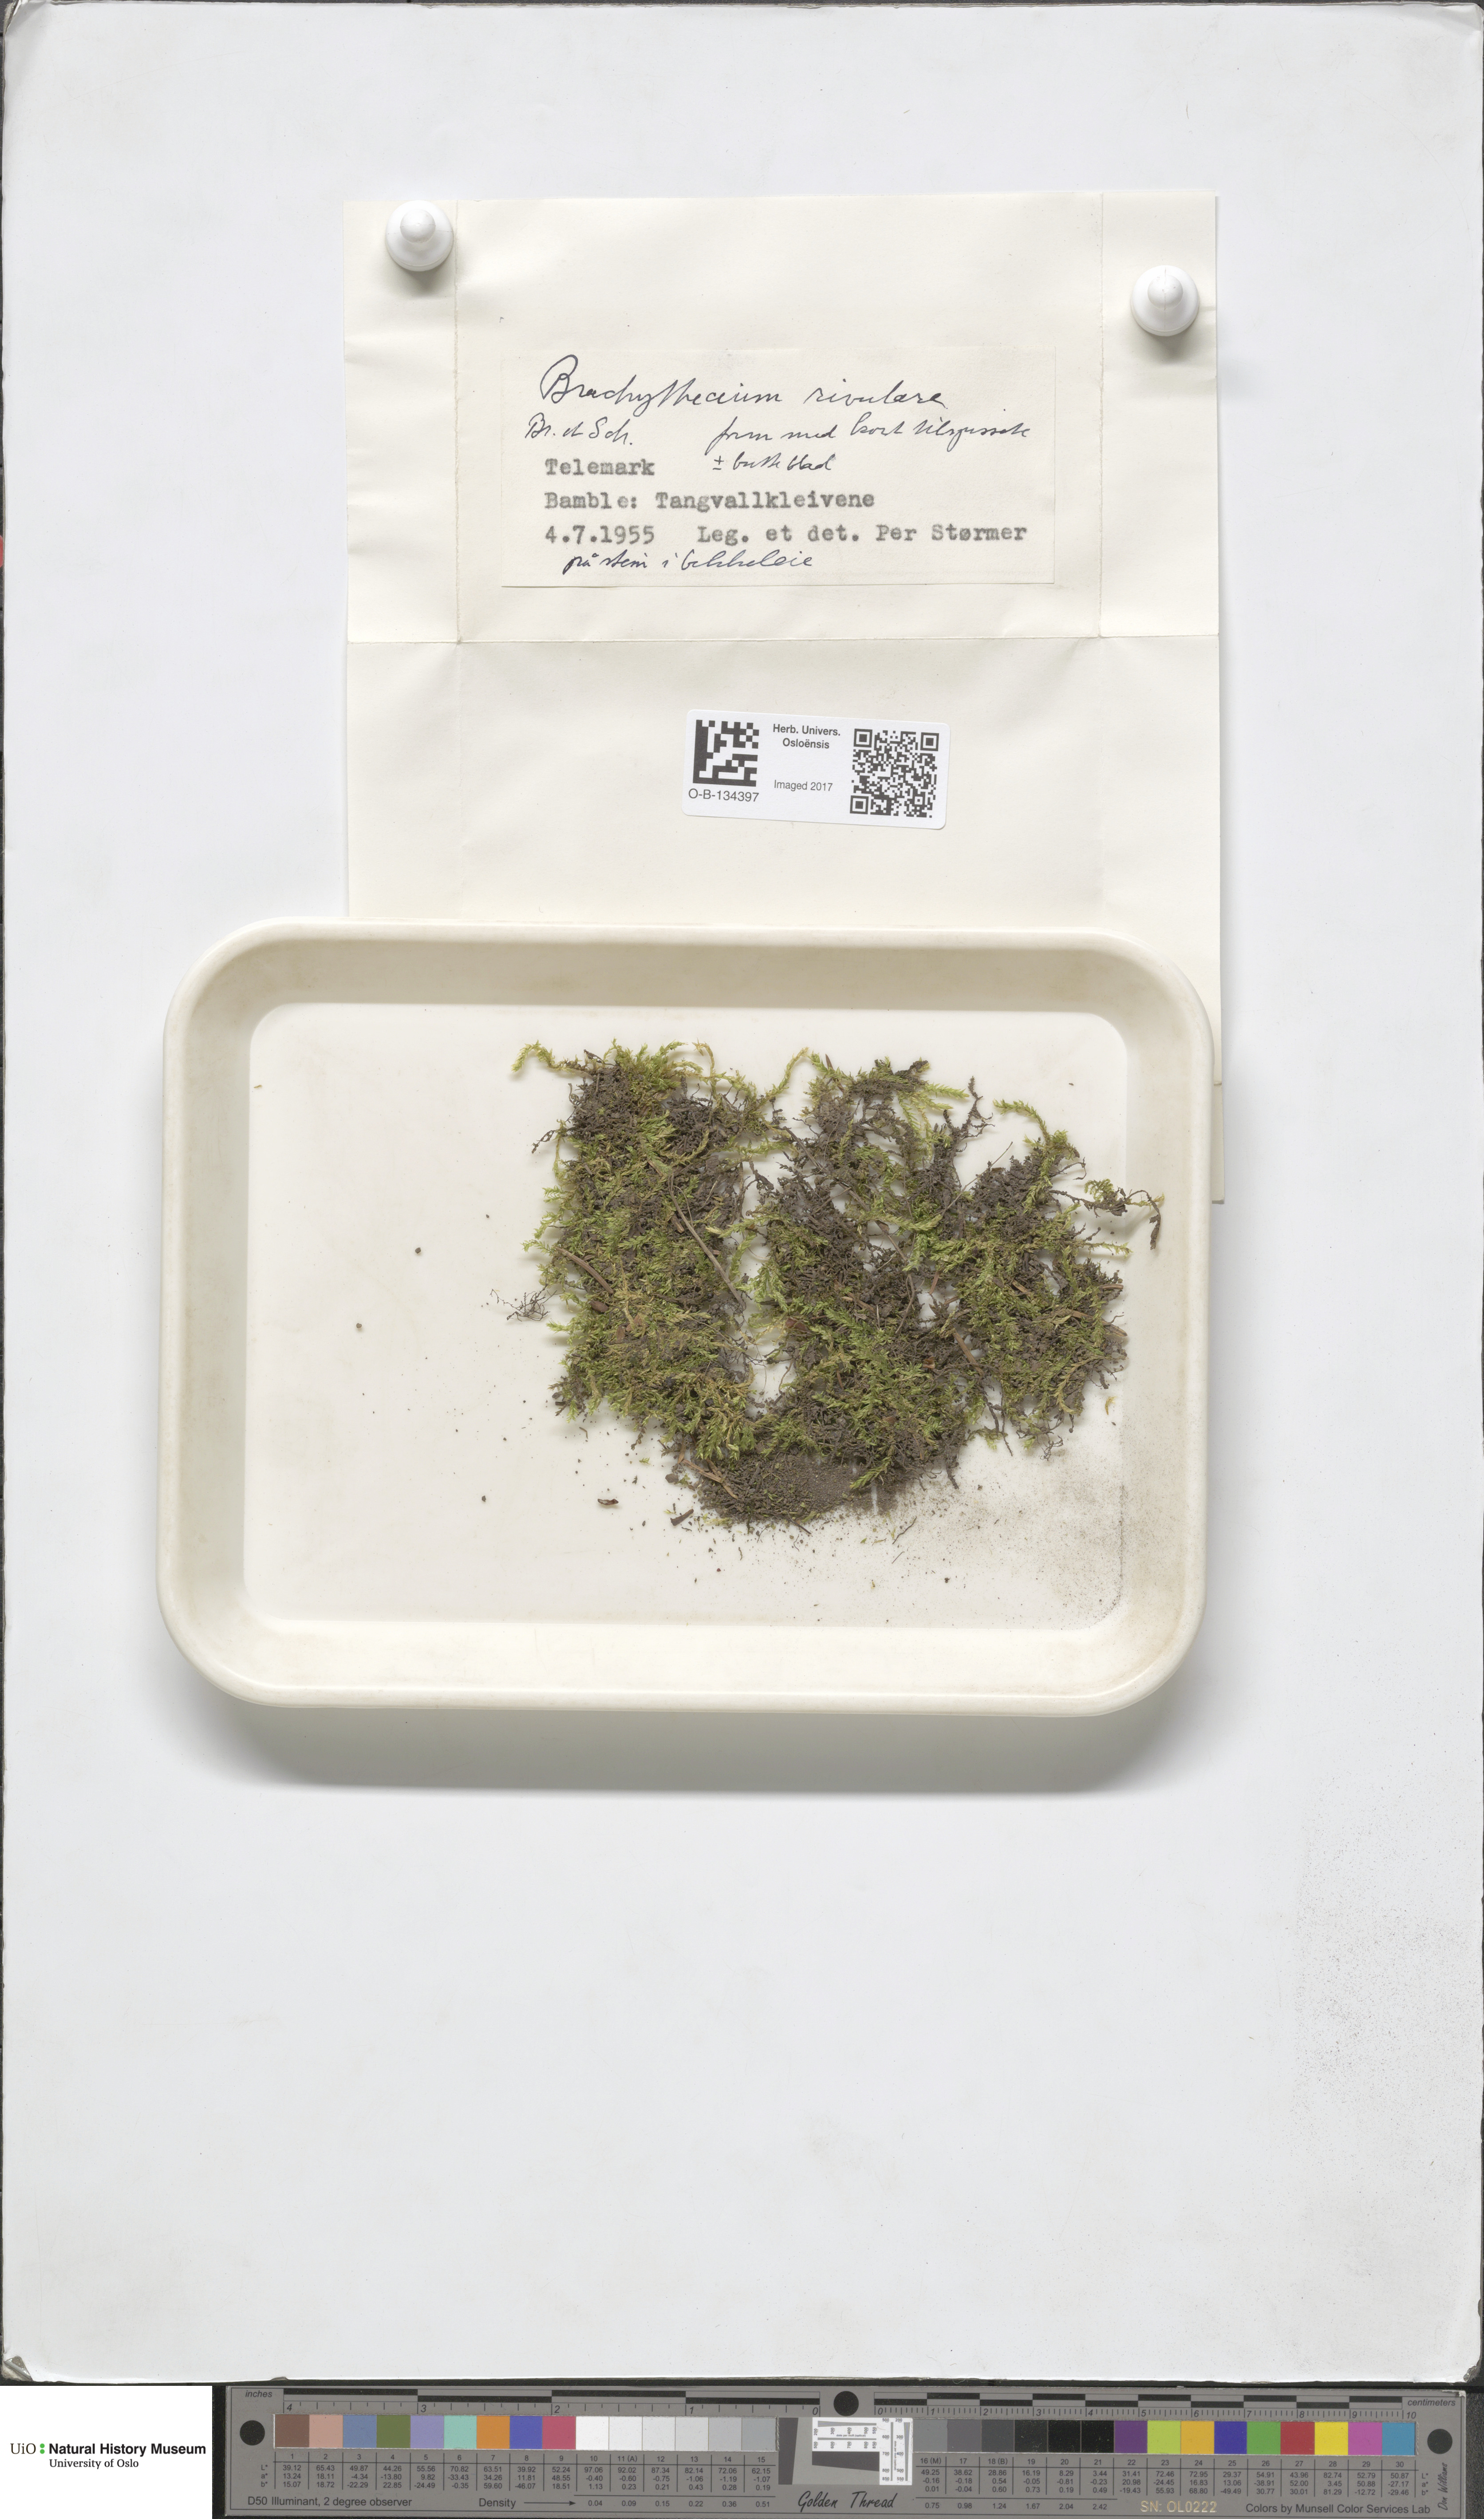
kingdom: Plantae
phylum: Bryophyta
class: Bryopsida
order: Hypnales
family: Brachytheciaceae
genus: Brachythecium
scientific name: Brachythecium rivulare
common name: River ragged moss
